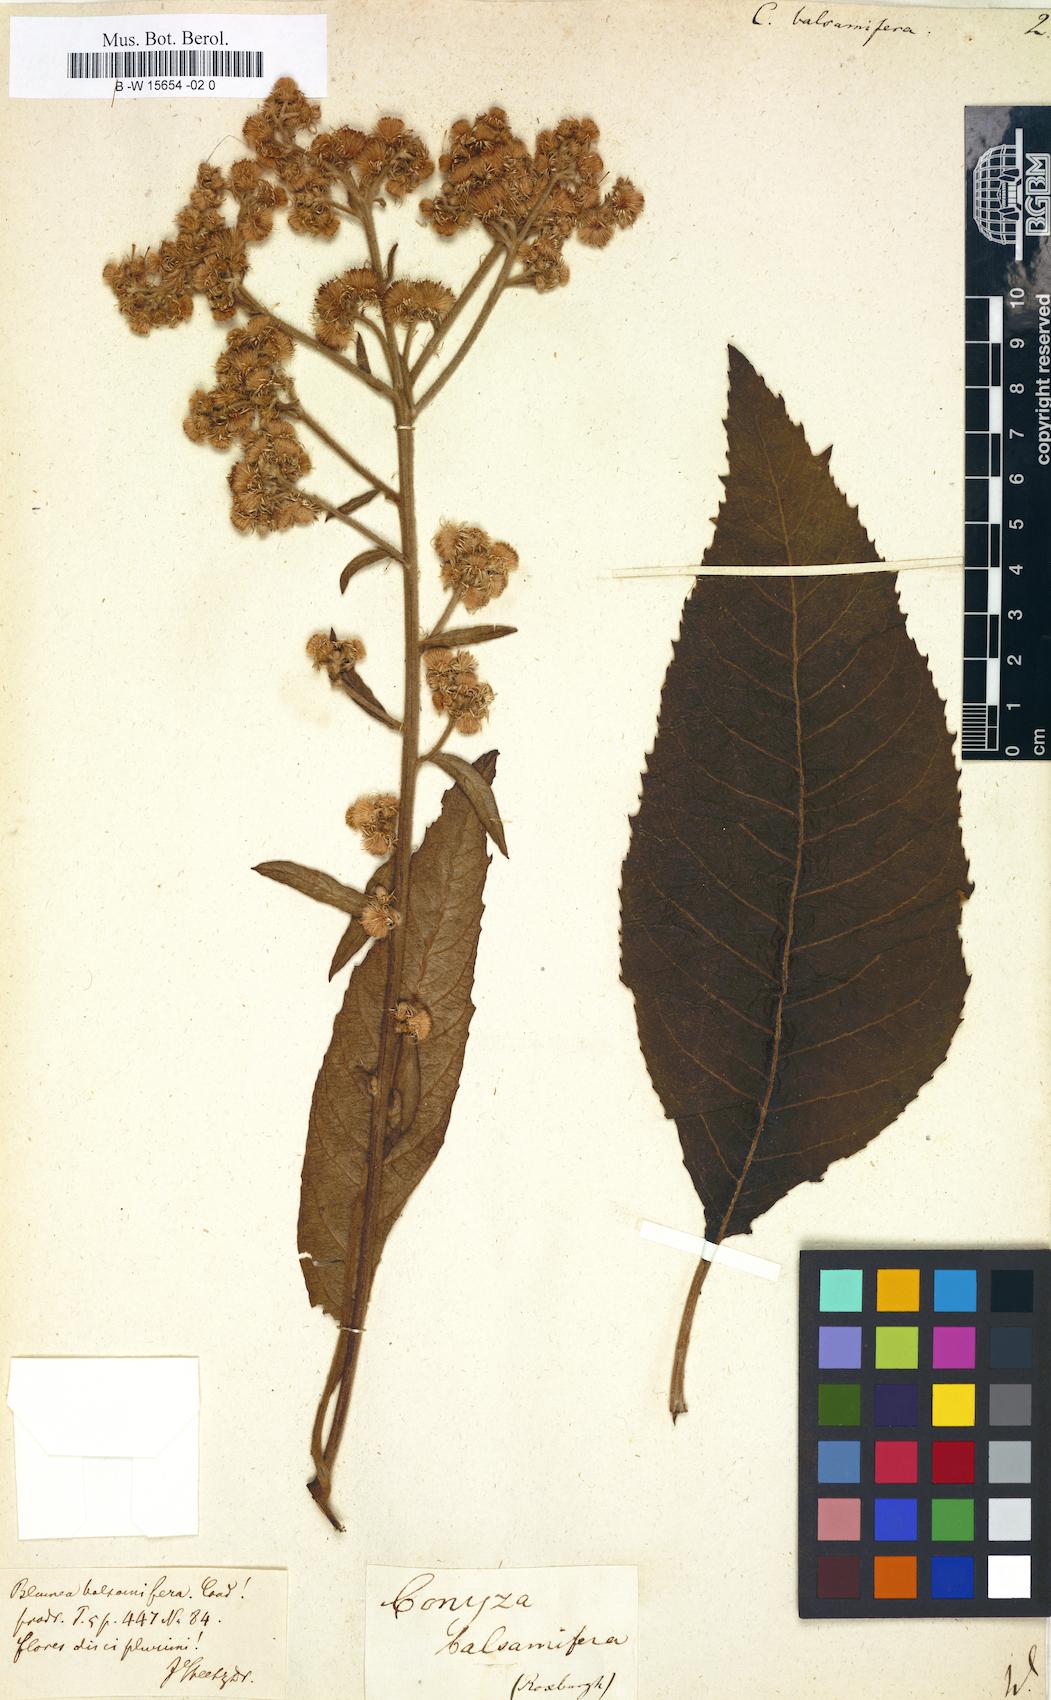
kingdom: Plantae
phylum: Tracheophyta
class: Magnoliopsida
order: Asterales
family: Asteraceae
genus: Blumea
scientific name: Blumea balsamifera
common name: Ngai camphor
